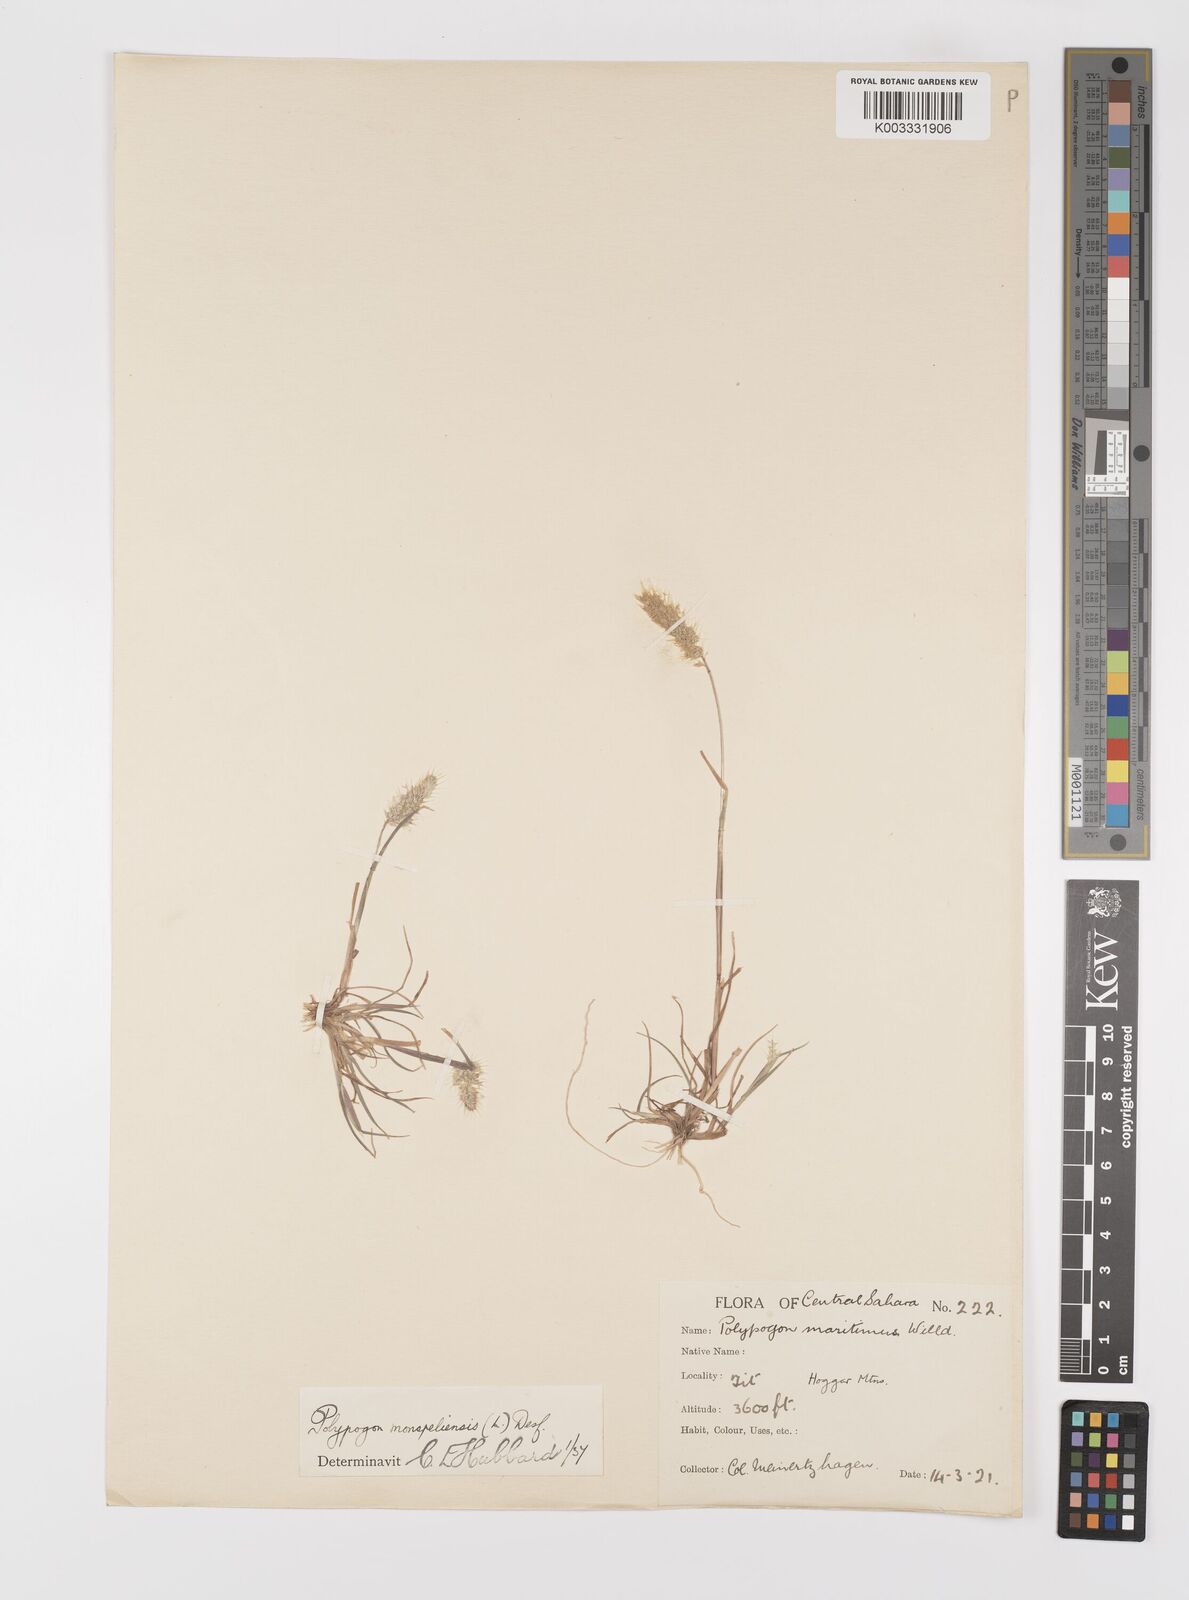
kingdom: Plantae
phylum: Tracheophyta
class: Liliopsida
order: Poales
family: Poaceae
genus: Polypogon
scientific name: Polypogon monspeliensis
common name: Annual rabbitsfoot grass
